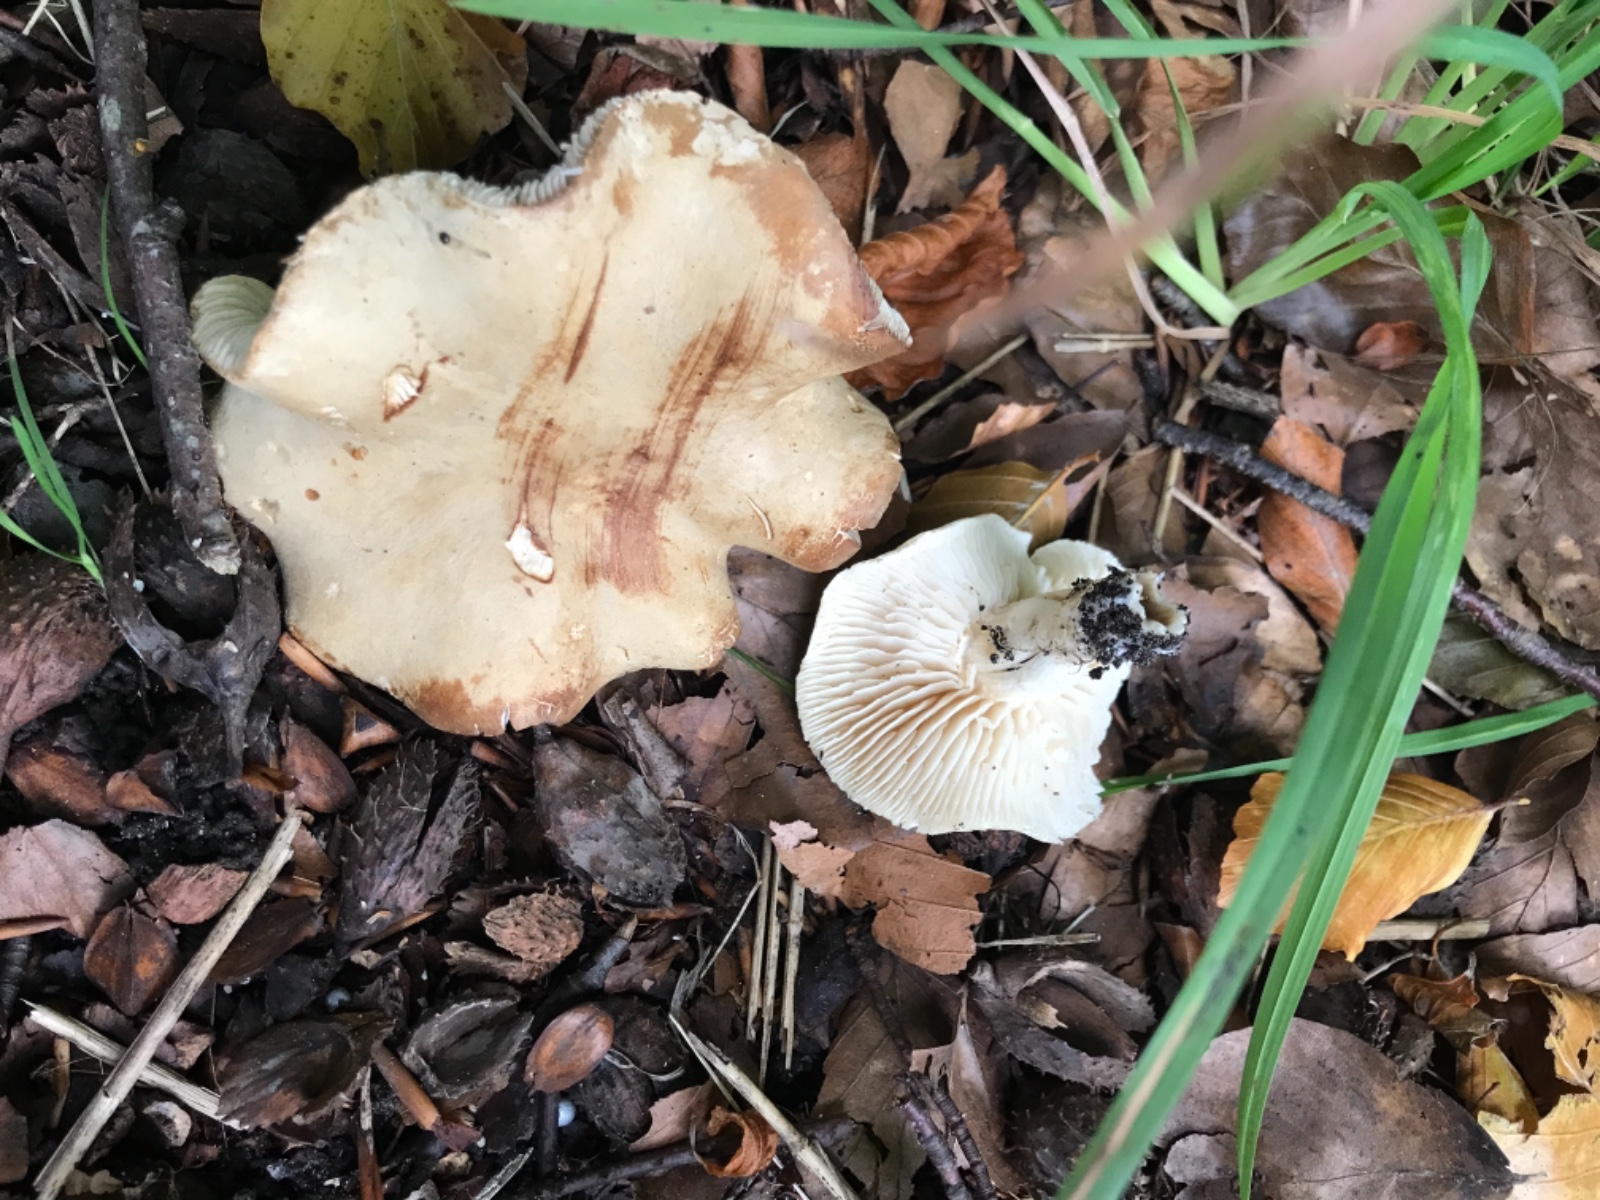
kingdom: Fungi
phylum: Basidiomycota
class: Agaricomycetes
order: Agaricales
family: Tricholomataceae
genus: Tricholoma
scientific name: Tricholoma
